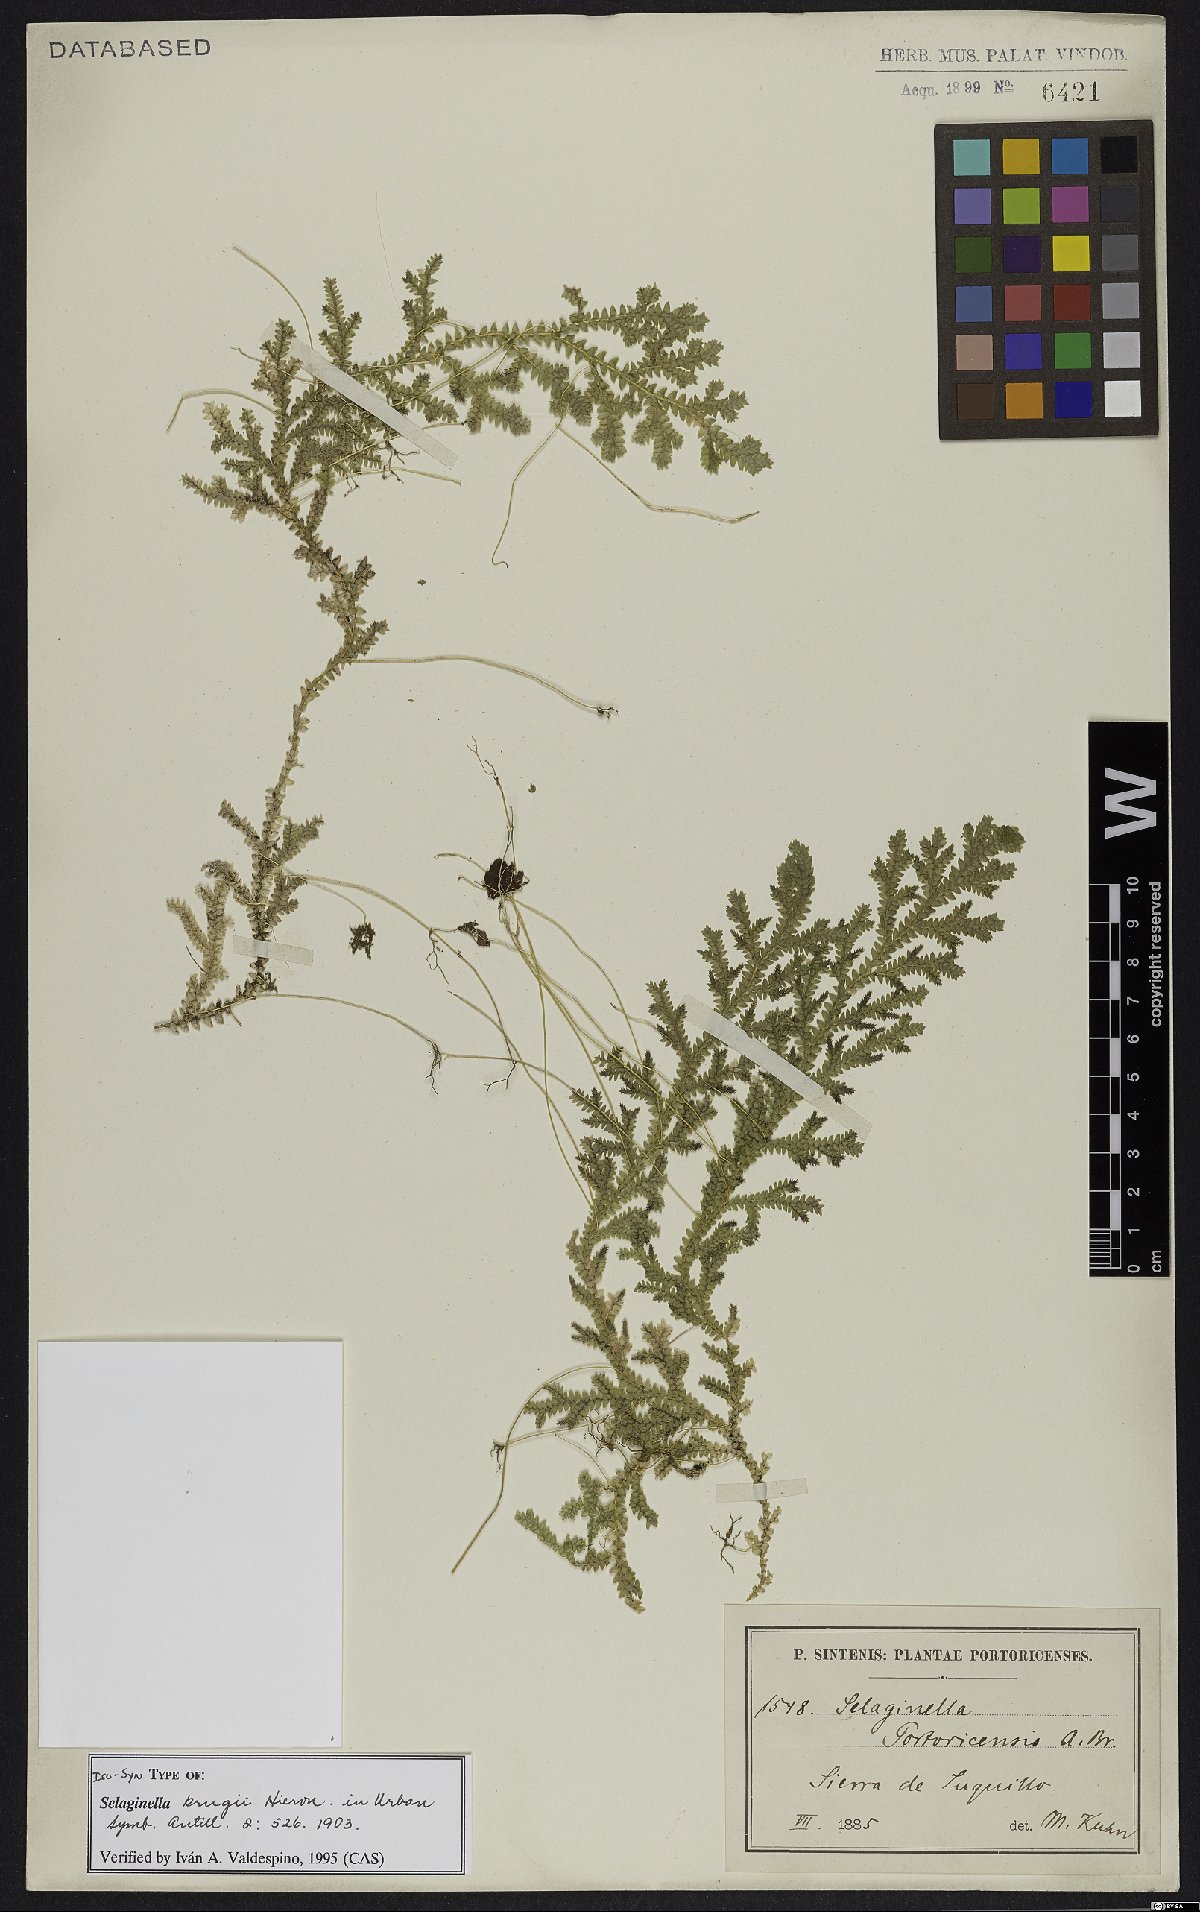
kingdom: Plantae
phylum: Tracheophyta
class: Lycopodiopsida
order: Selaginellales
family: Selaginellaceae
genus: Selaginella
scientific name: Selaginella krugii
